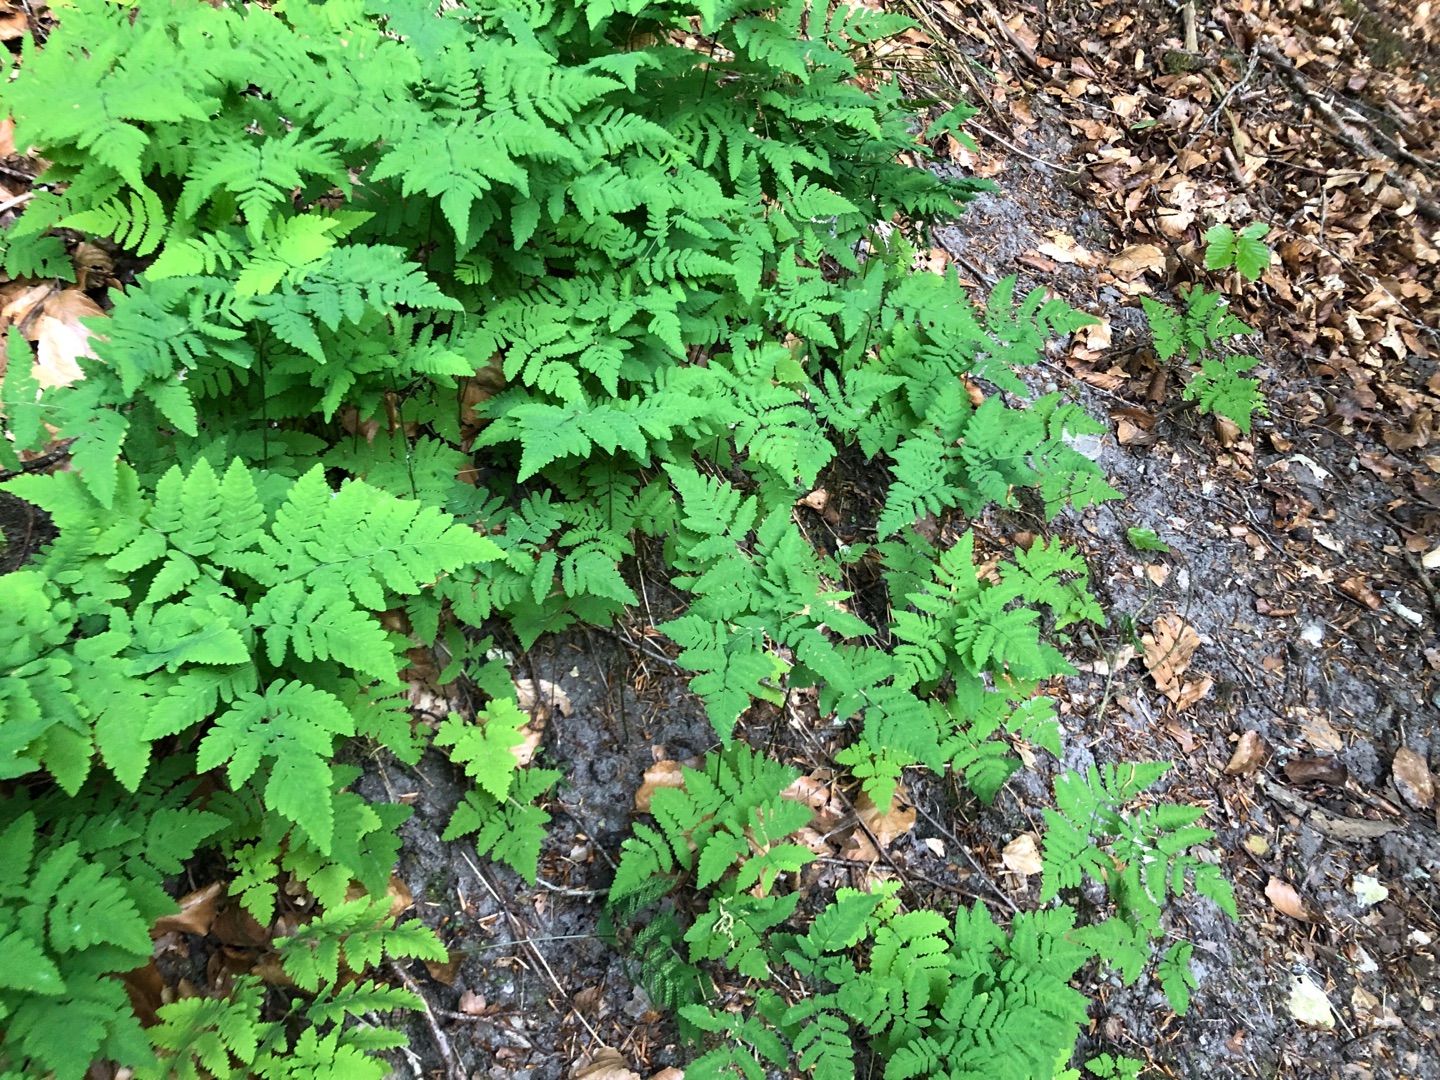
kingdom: Plantae
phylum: Tracheophyta
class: Polypodiopsida
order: Polypodiales
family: Cystopteridaceae
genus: Gymnocarpium
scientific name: Gymnocarpium dryopteris
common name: Tredelt egebregne
